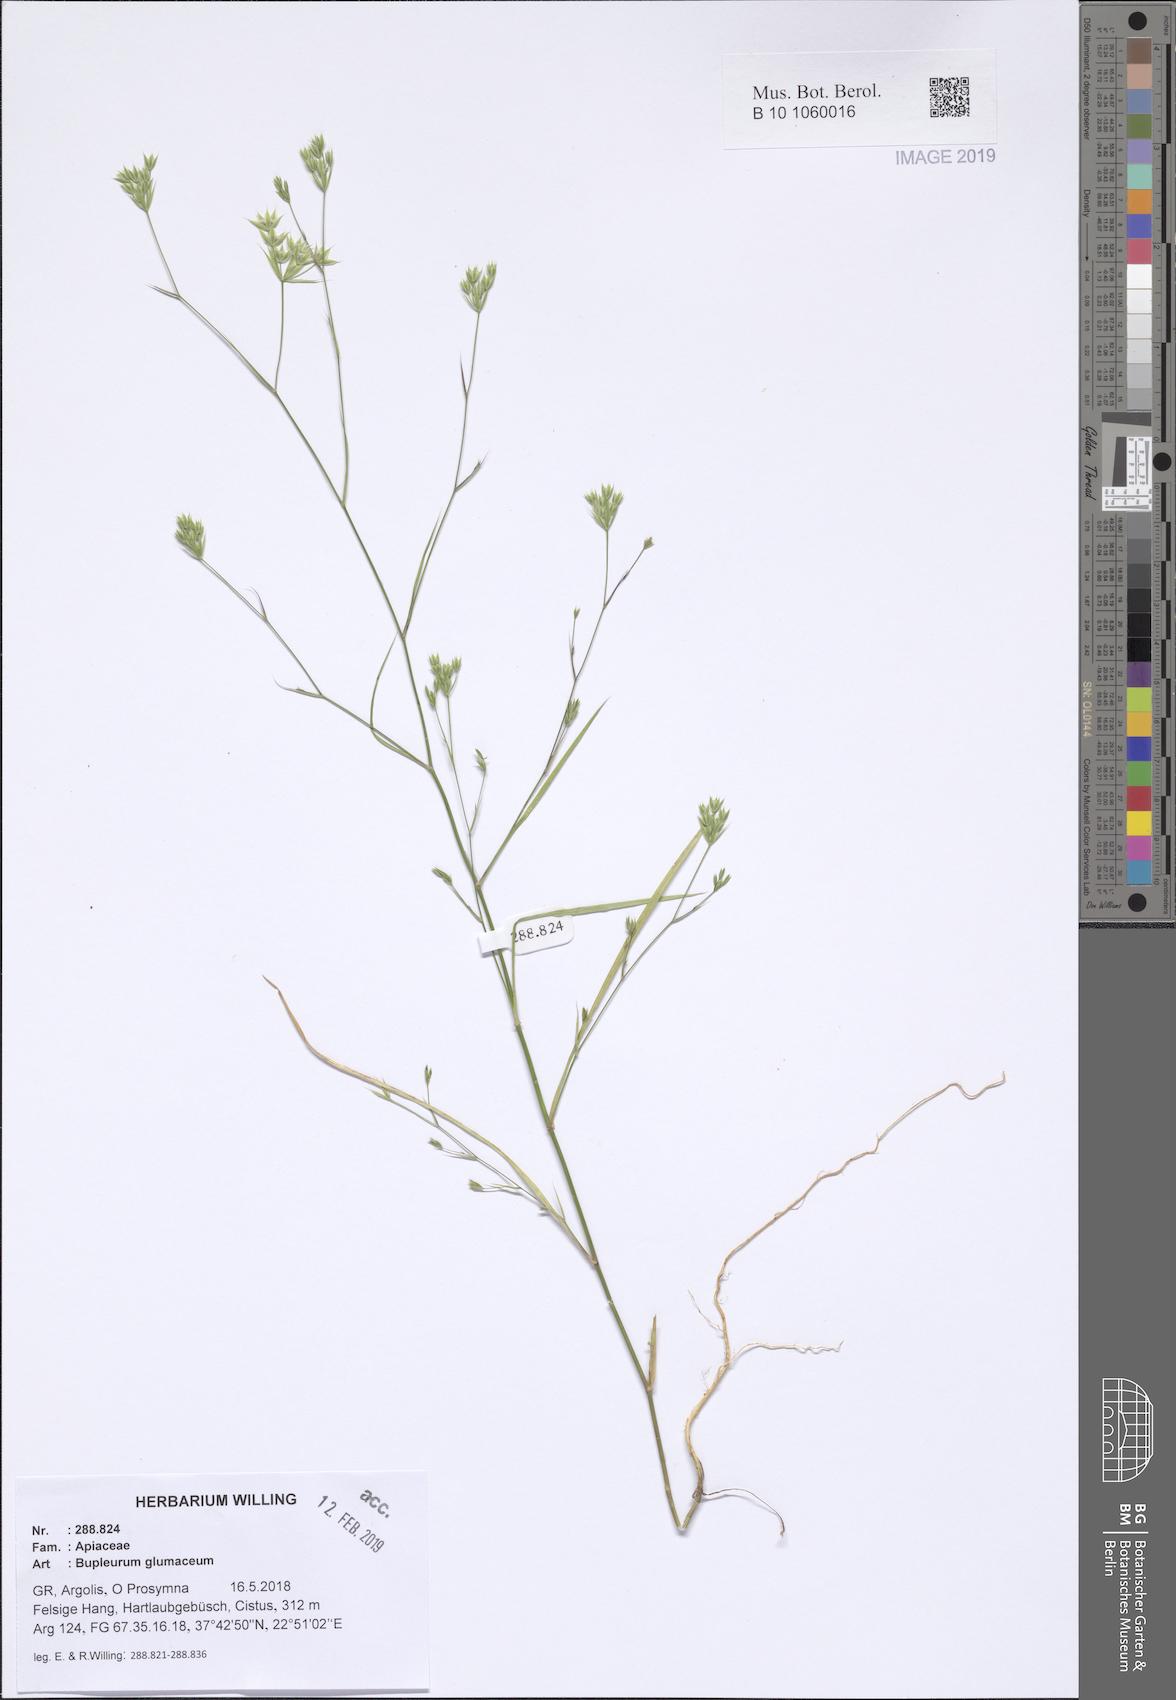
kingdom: Plantae
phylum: Tracheophyta
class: Magnoliopsida
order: Apiales
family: Apiaceae
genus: Bupleurum
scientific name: Bupleurum glumaceum
